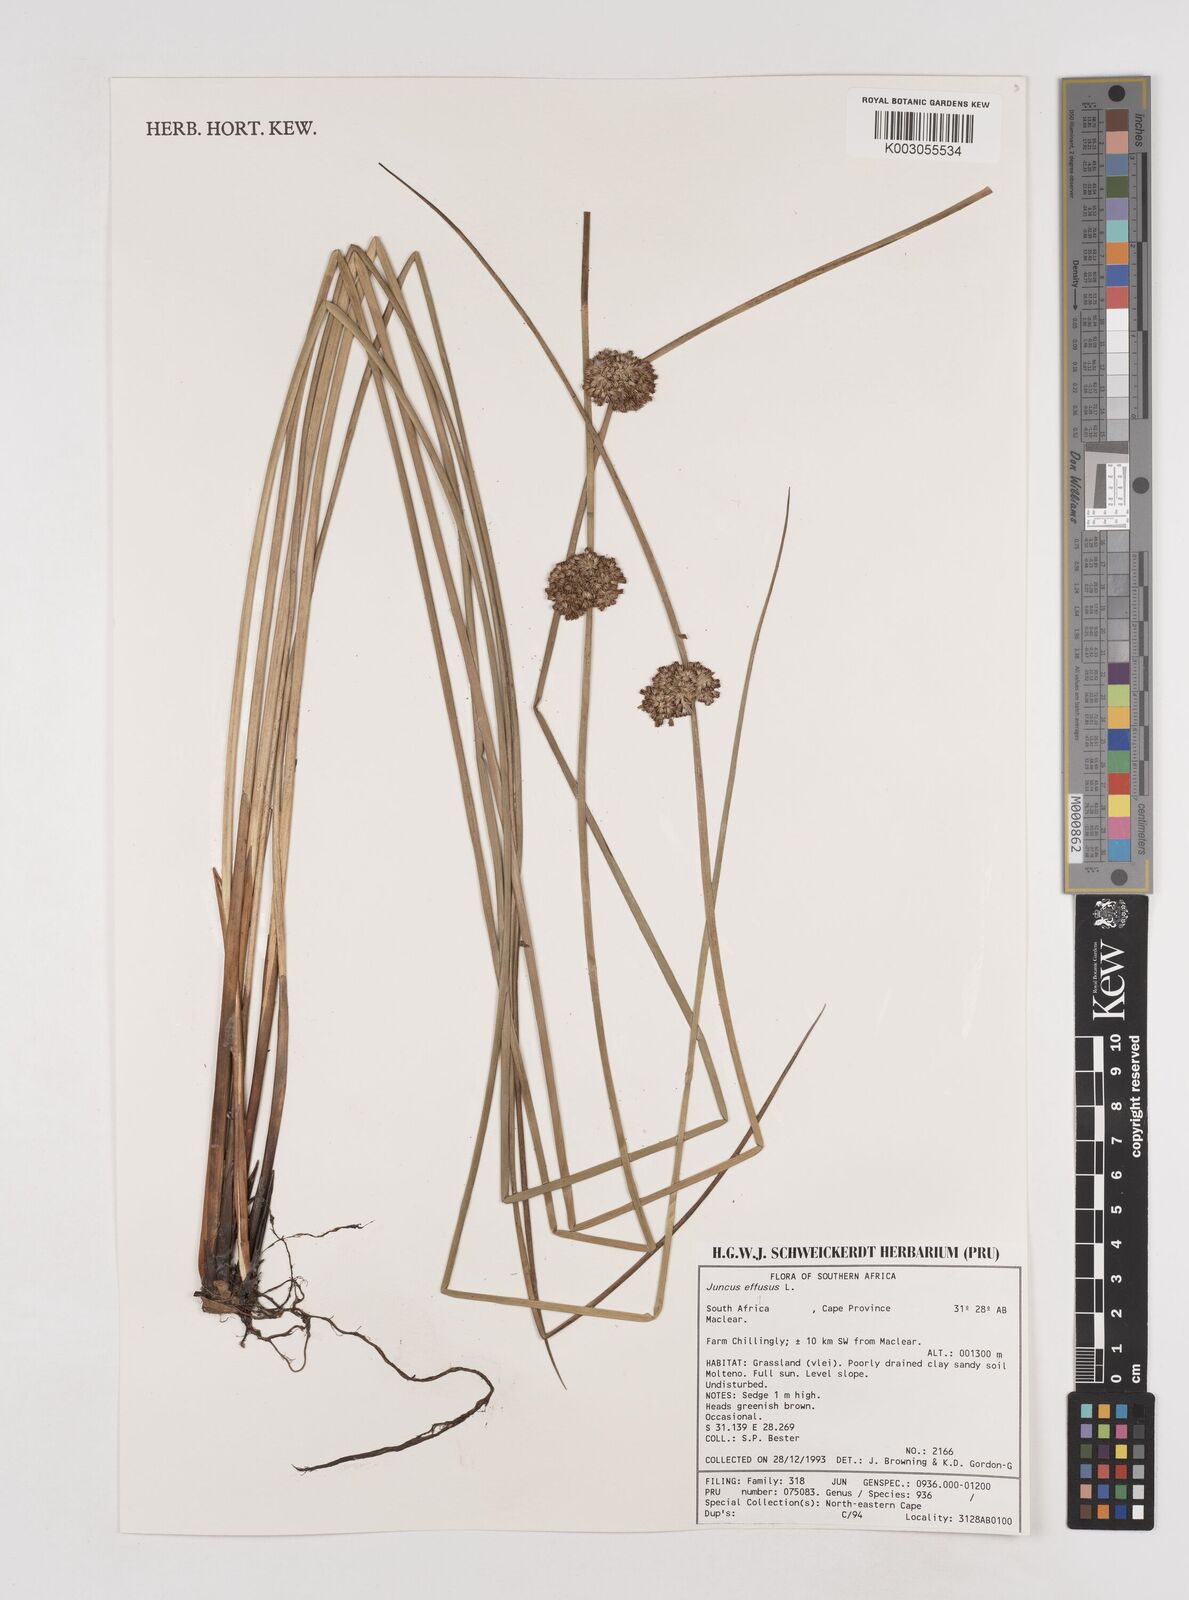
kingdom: Plantae
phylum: Tracheophyta
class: Liliopsida
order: Poales
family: Juncaceae
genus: Juncus
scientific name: Juncus effusus
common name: Soft rush
